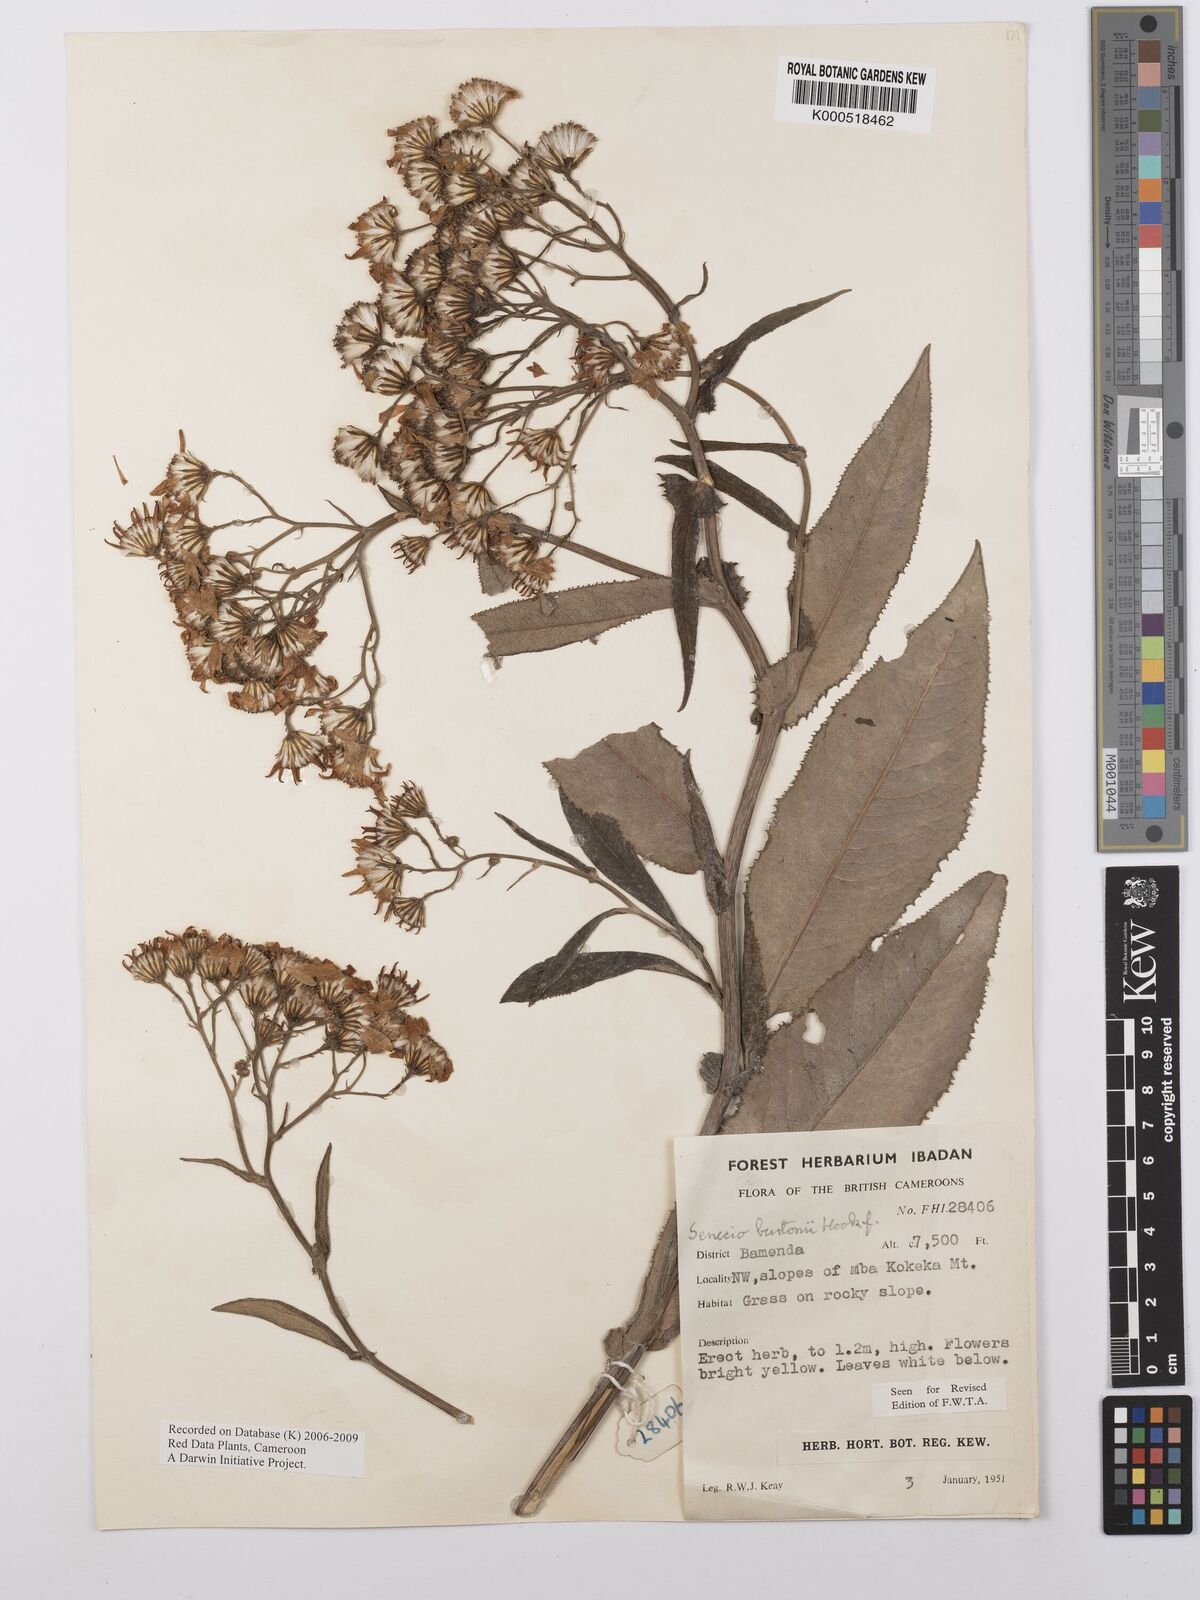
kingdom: Plantae
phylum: Tracheophyta
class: Magnoliopsida
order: Asterales
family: Asteraceae
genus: Senecio
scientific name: Senecio burtonii
